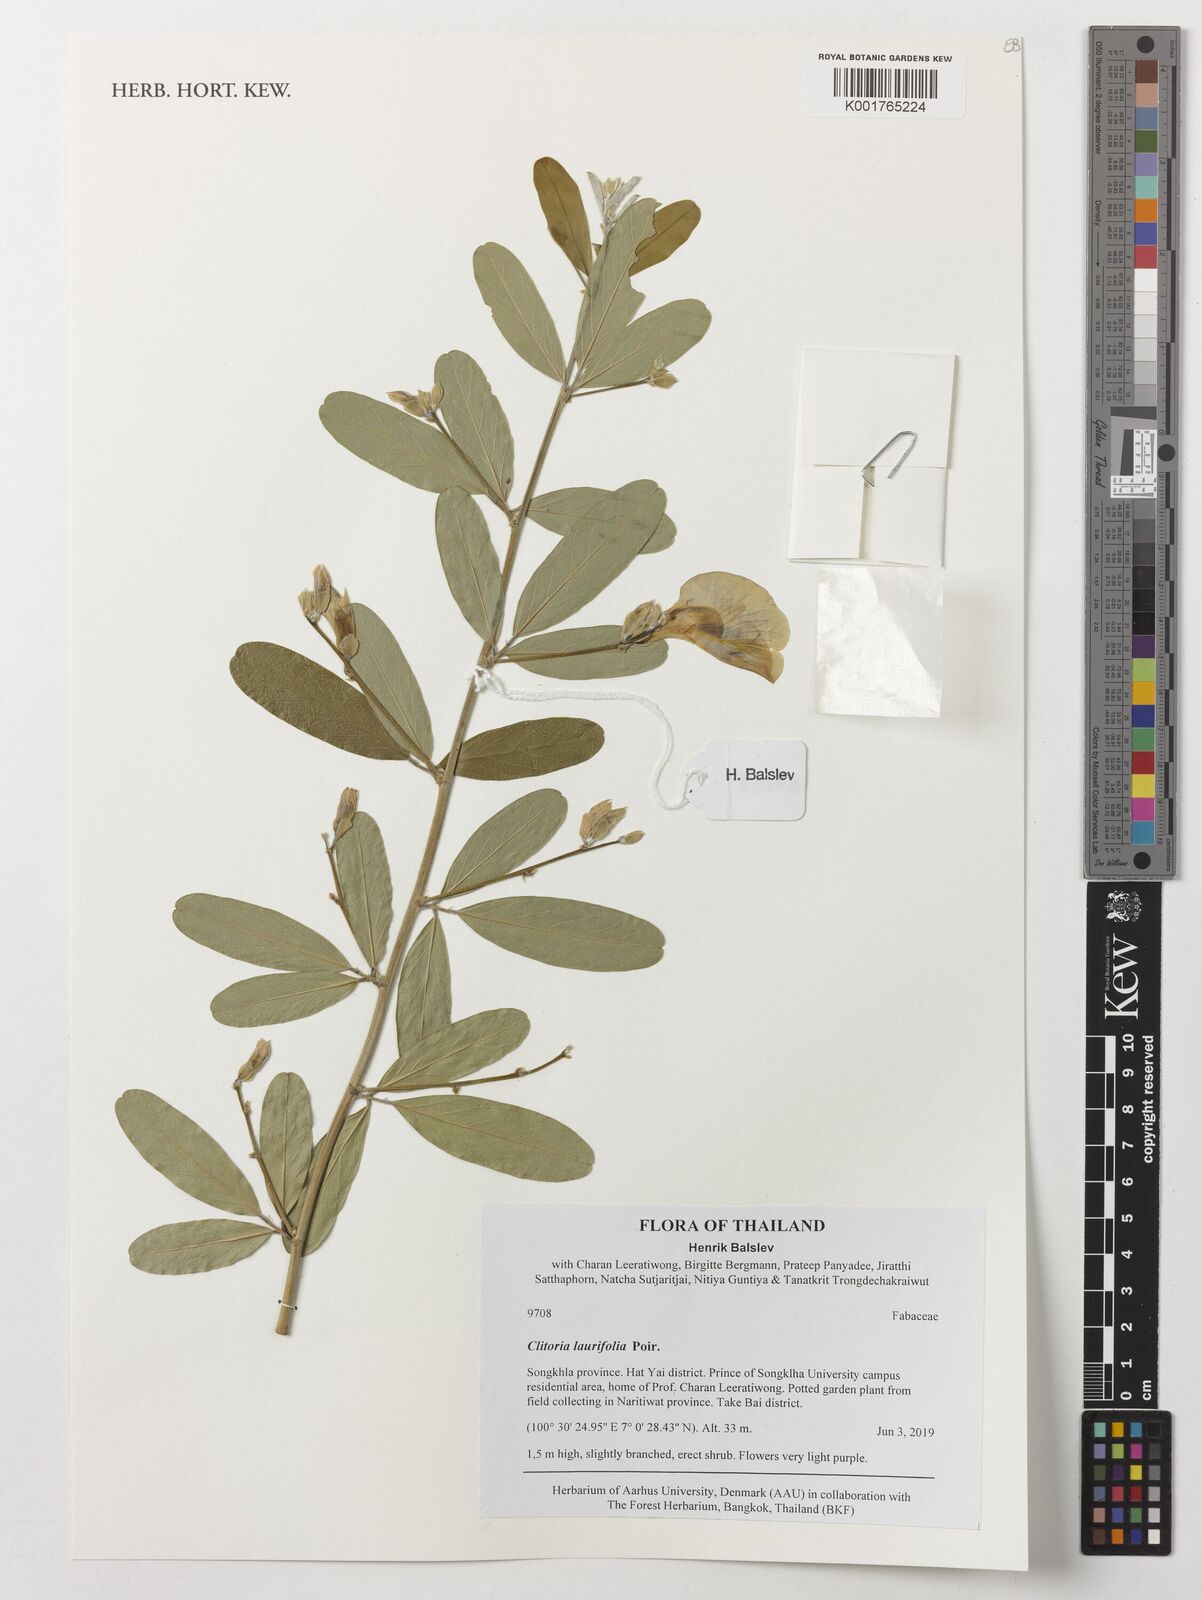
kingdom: Plantae
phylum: Tracheophyta
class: Magnoliopsida
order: Fabales
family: Fabaceae
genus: Clitoria
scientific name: Clitoria laurifolia
